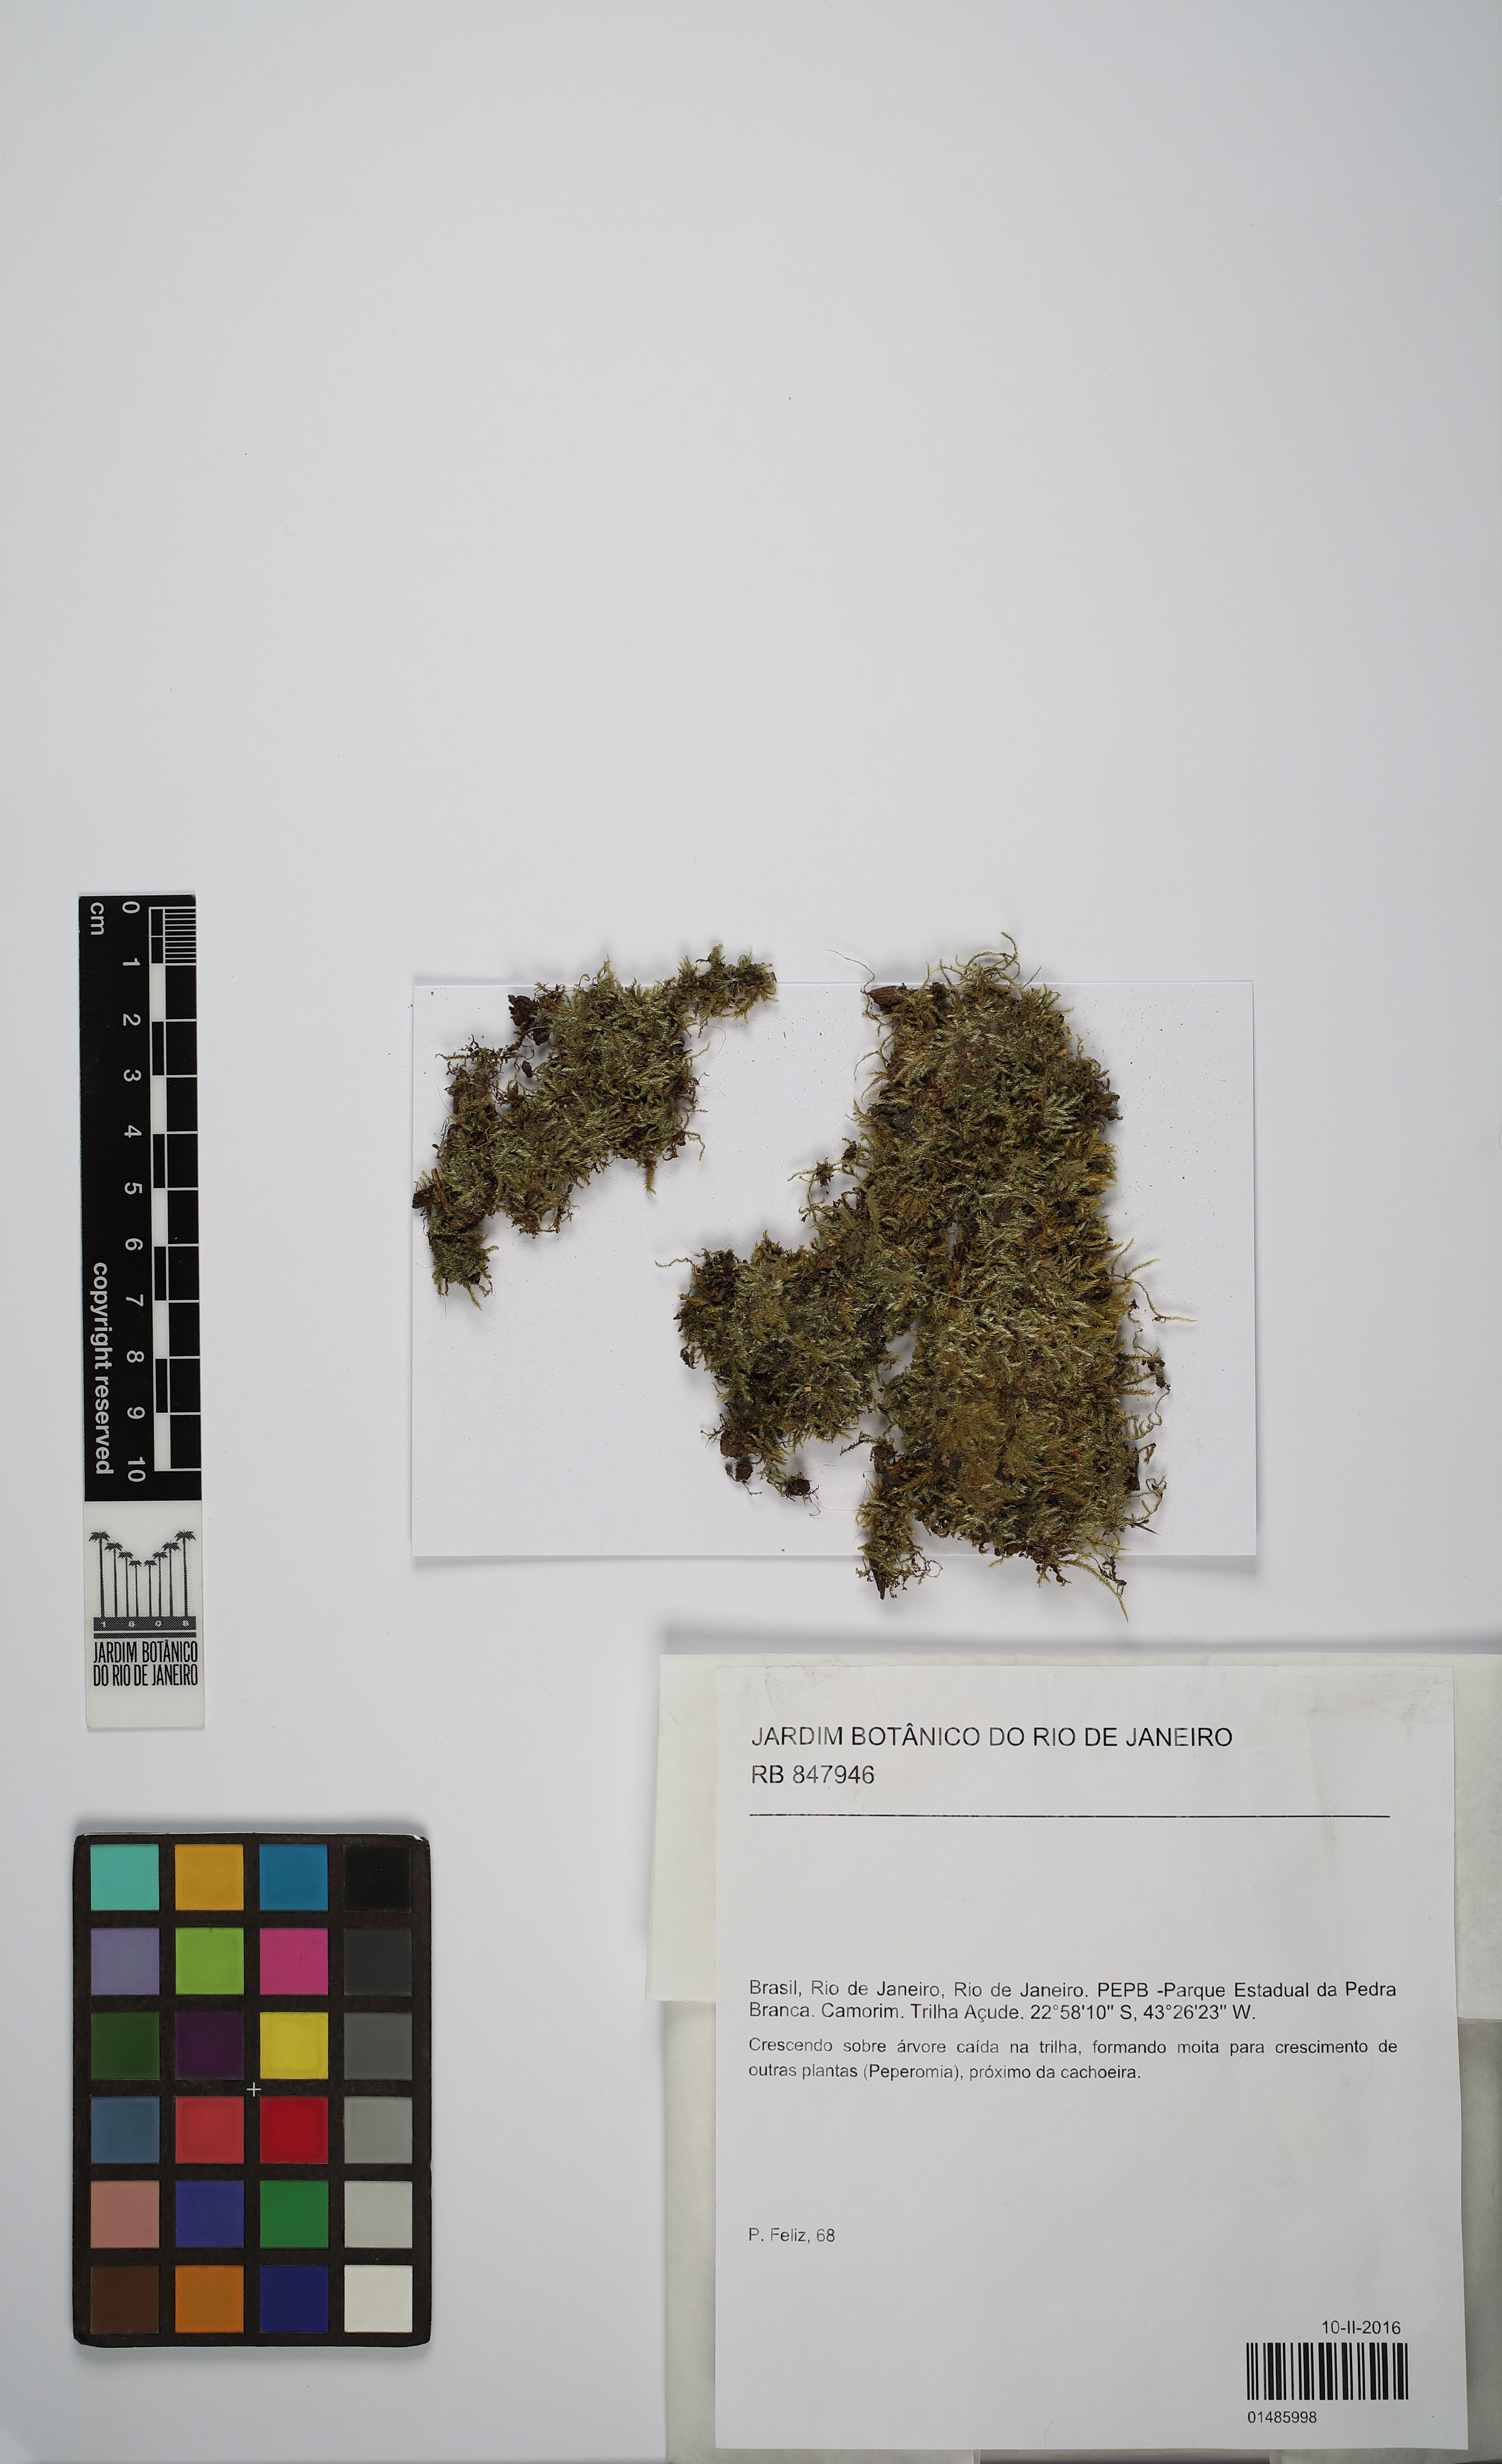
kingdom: Plantae
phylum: Bryophyta
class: Bryopsida
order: Hypnales
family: Sematophyllaceae
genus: Microcalpe
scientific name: Microcalpe subsimplex
